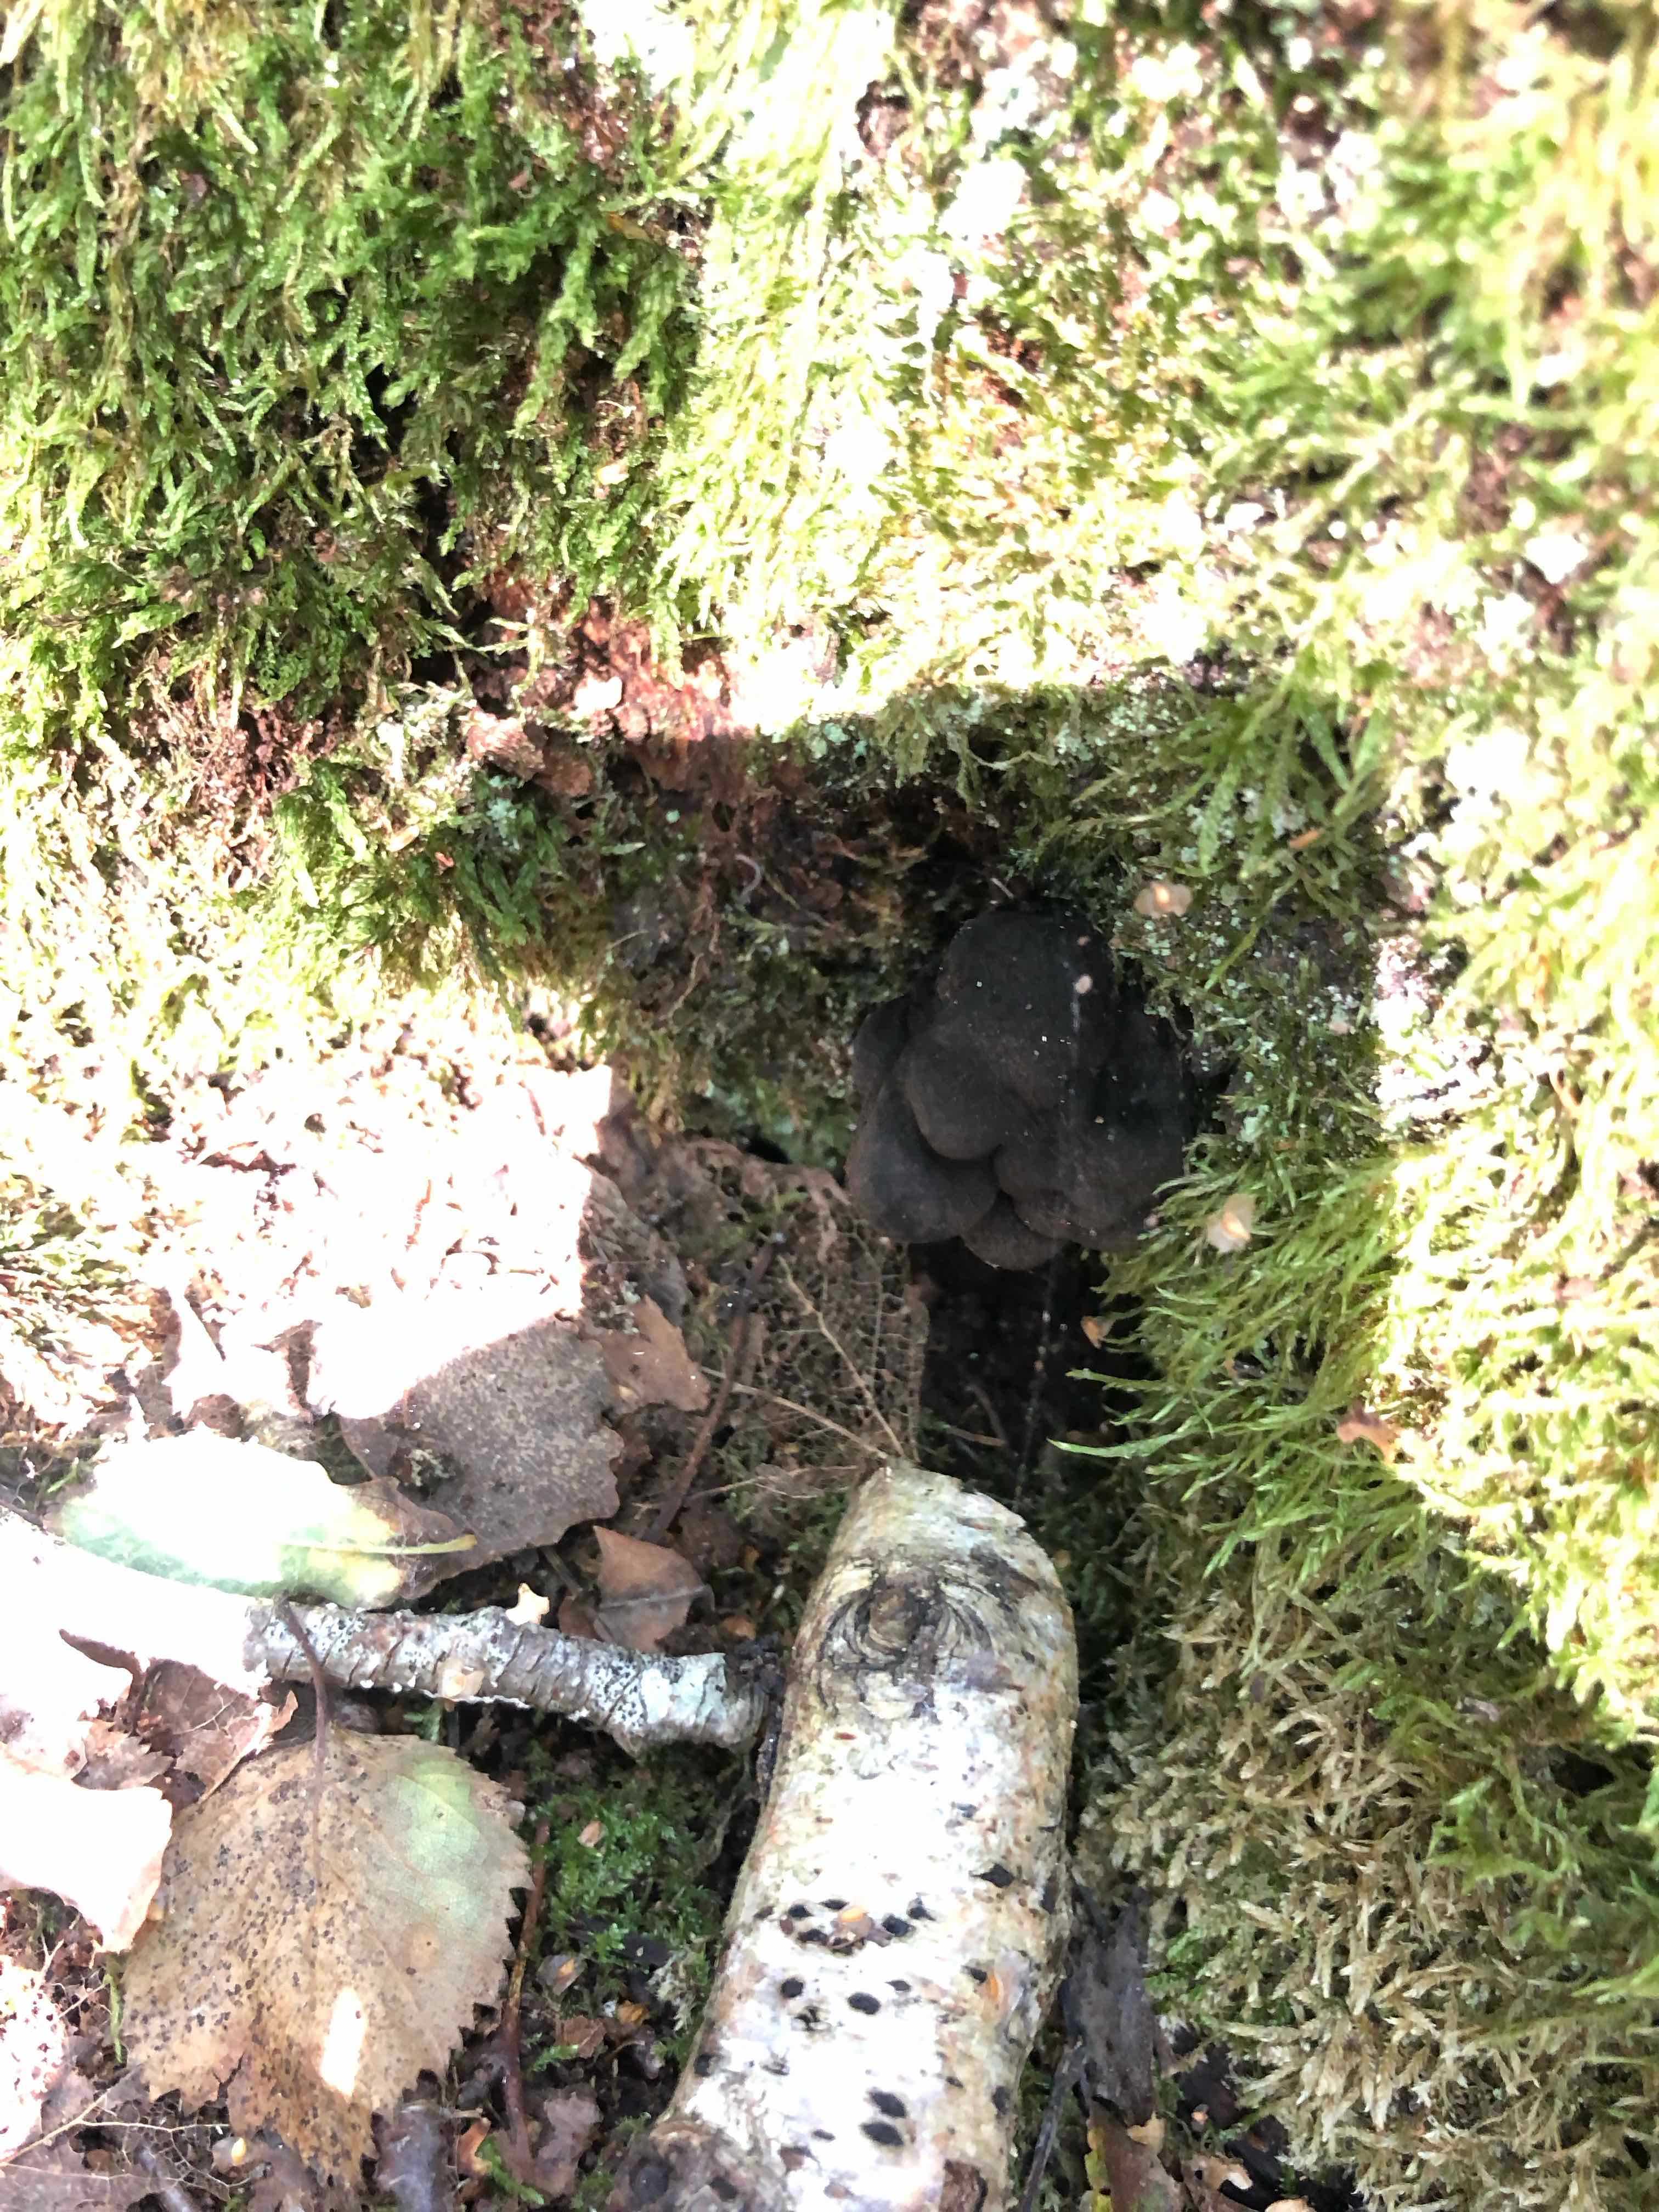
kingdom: Fungi
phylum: Ascomycota
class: Sordariomycetes
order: Xylariales
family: Xylariaceae
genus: Xylaria
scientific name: Xylaria polymorpha
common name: kølle-stødsvamp
